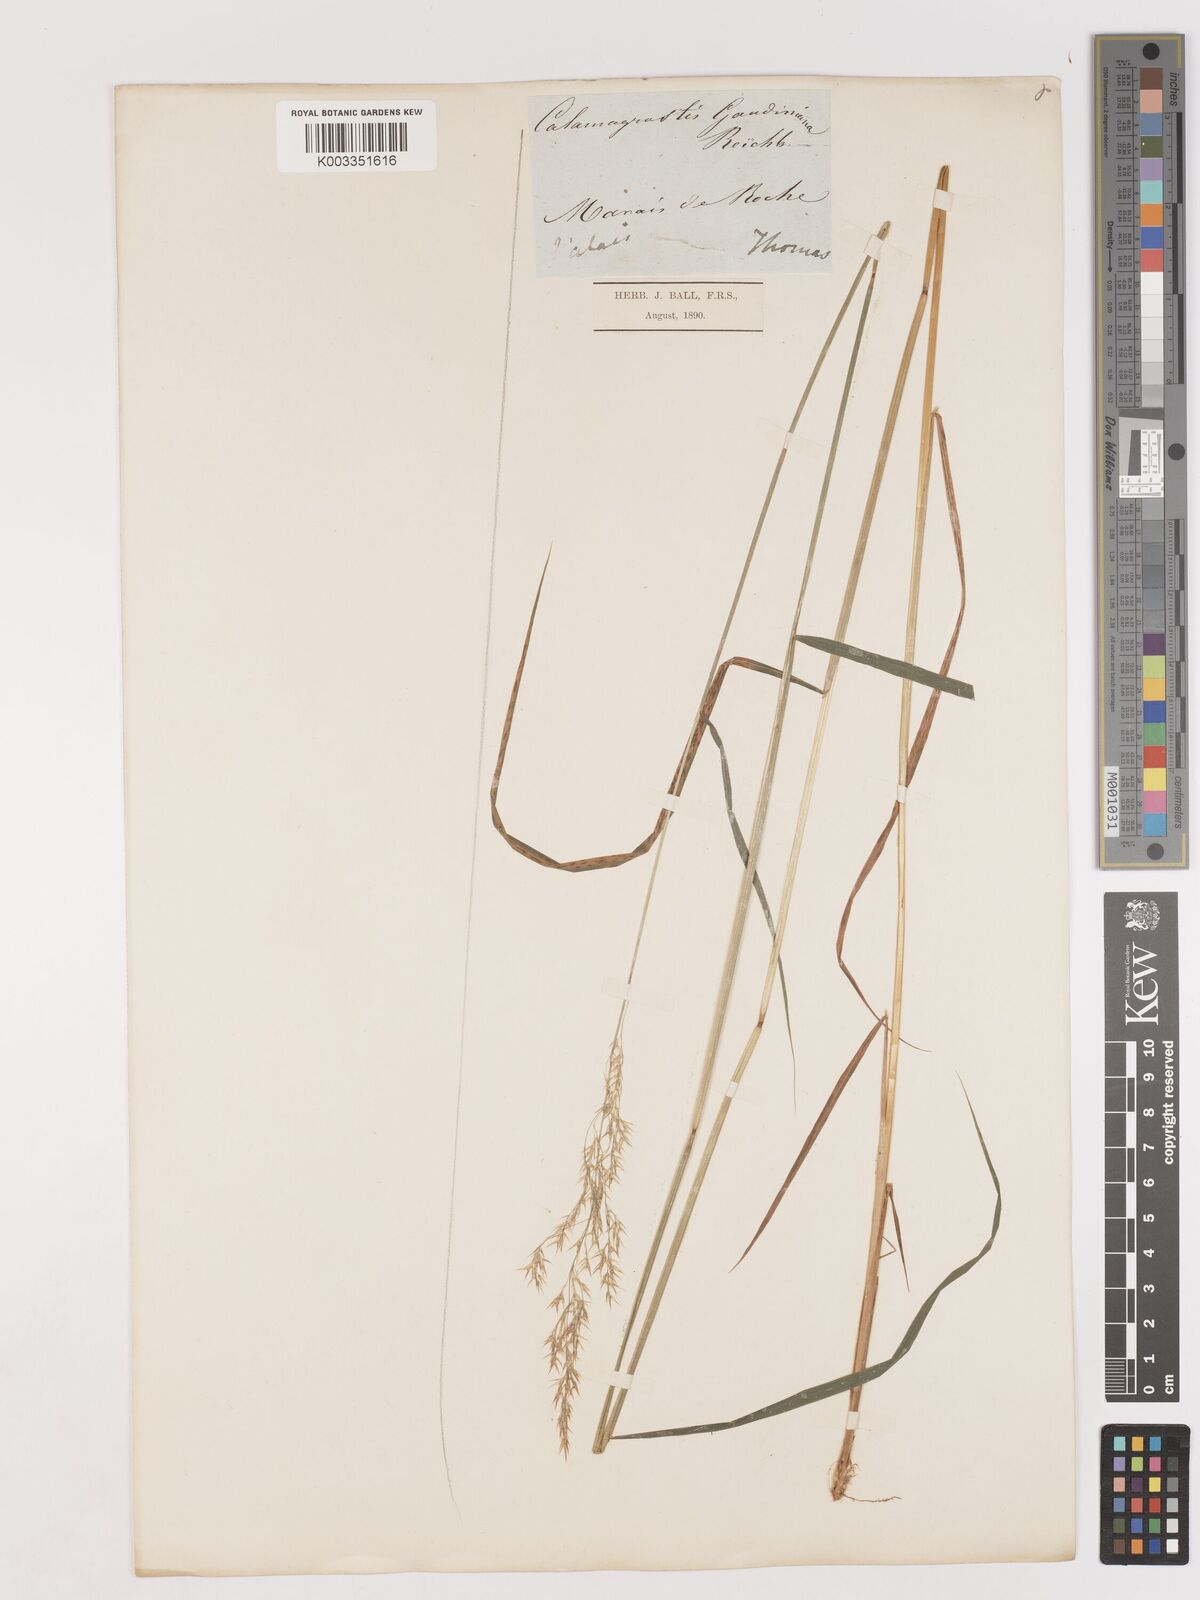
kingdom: Plantae
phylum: Tracheophyta
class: Liliopsida
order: Poales
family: Poaceae
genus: Calamagrostis
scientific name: Calamagrostis canescens
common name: Purple small-reed
